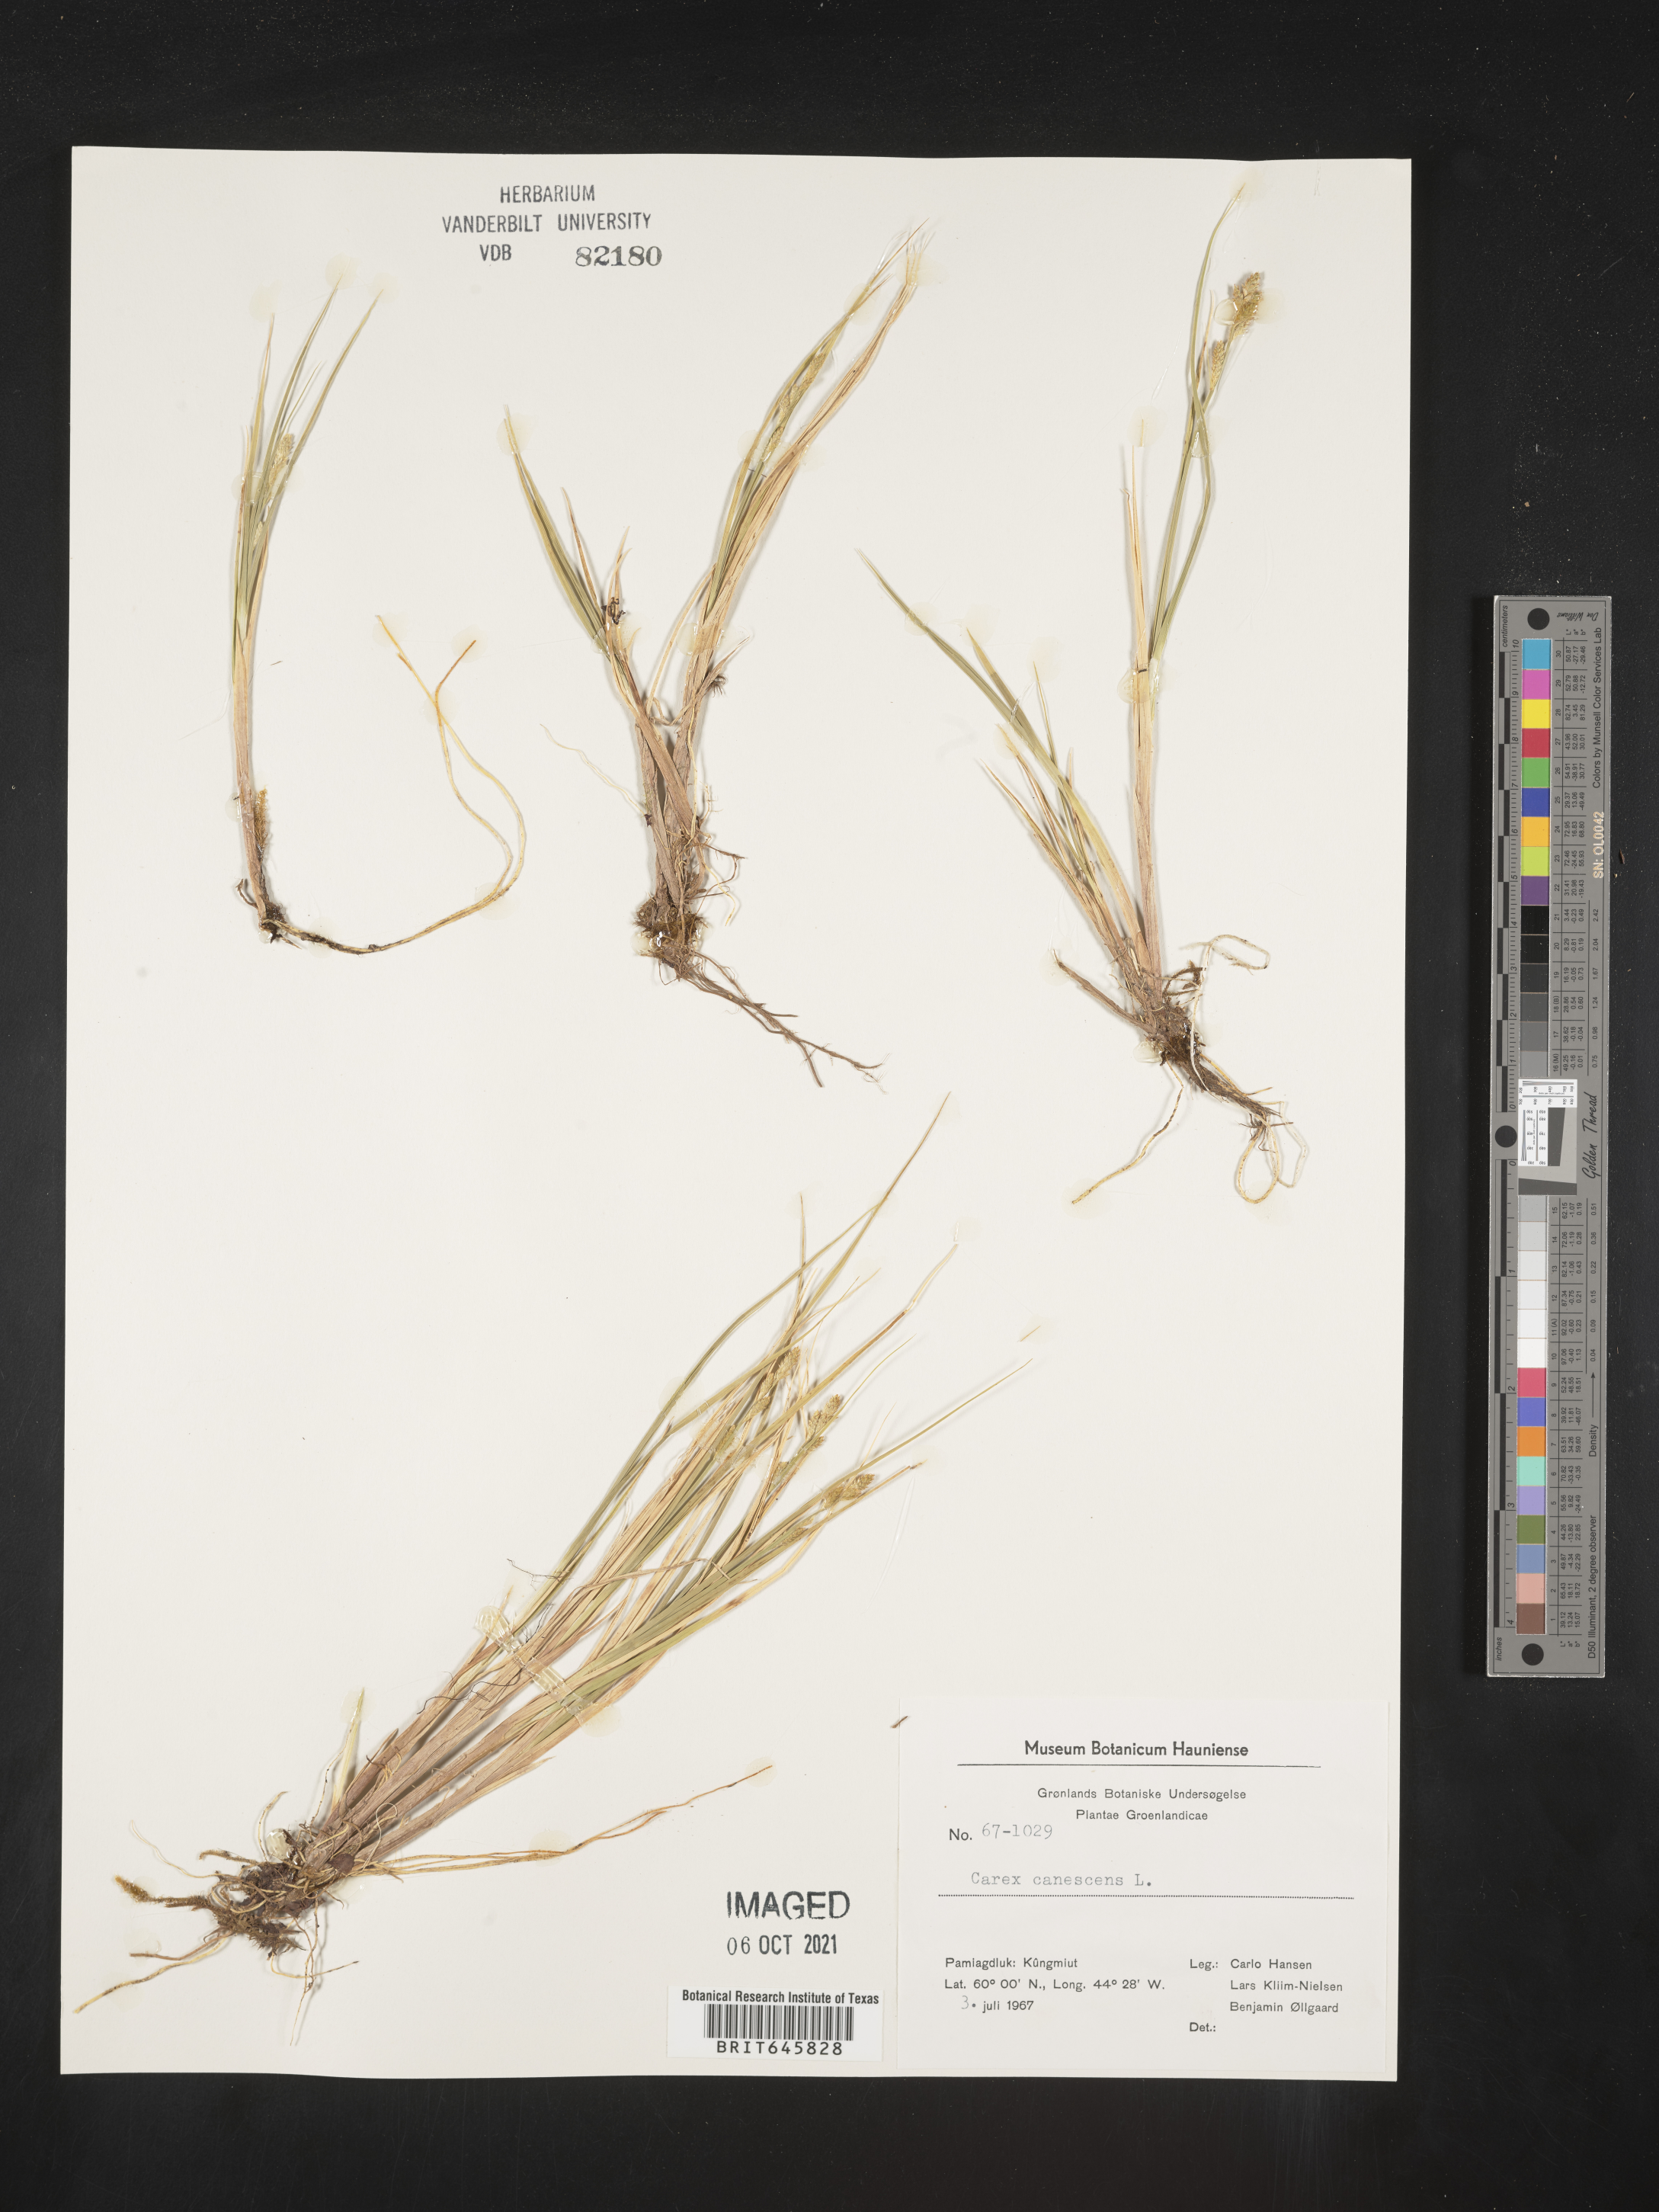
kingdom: Plantae
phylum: Tracheophyta
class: Liliopsida
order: Poales
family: Cyperaceae
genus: Carex
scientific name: Carex canescens
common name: White sedge
